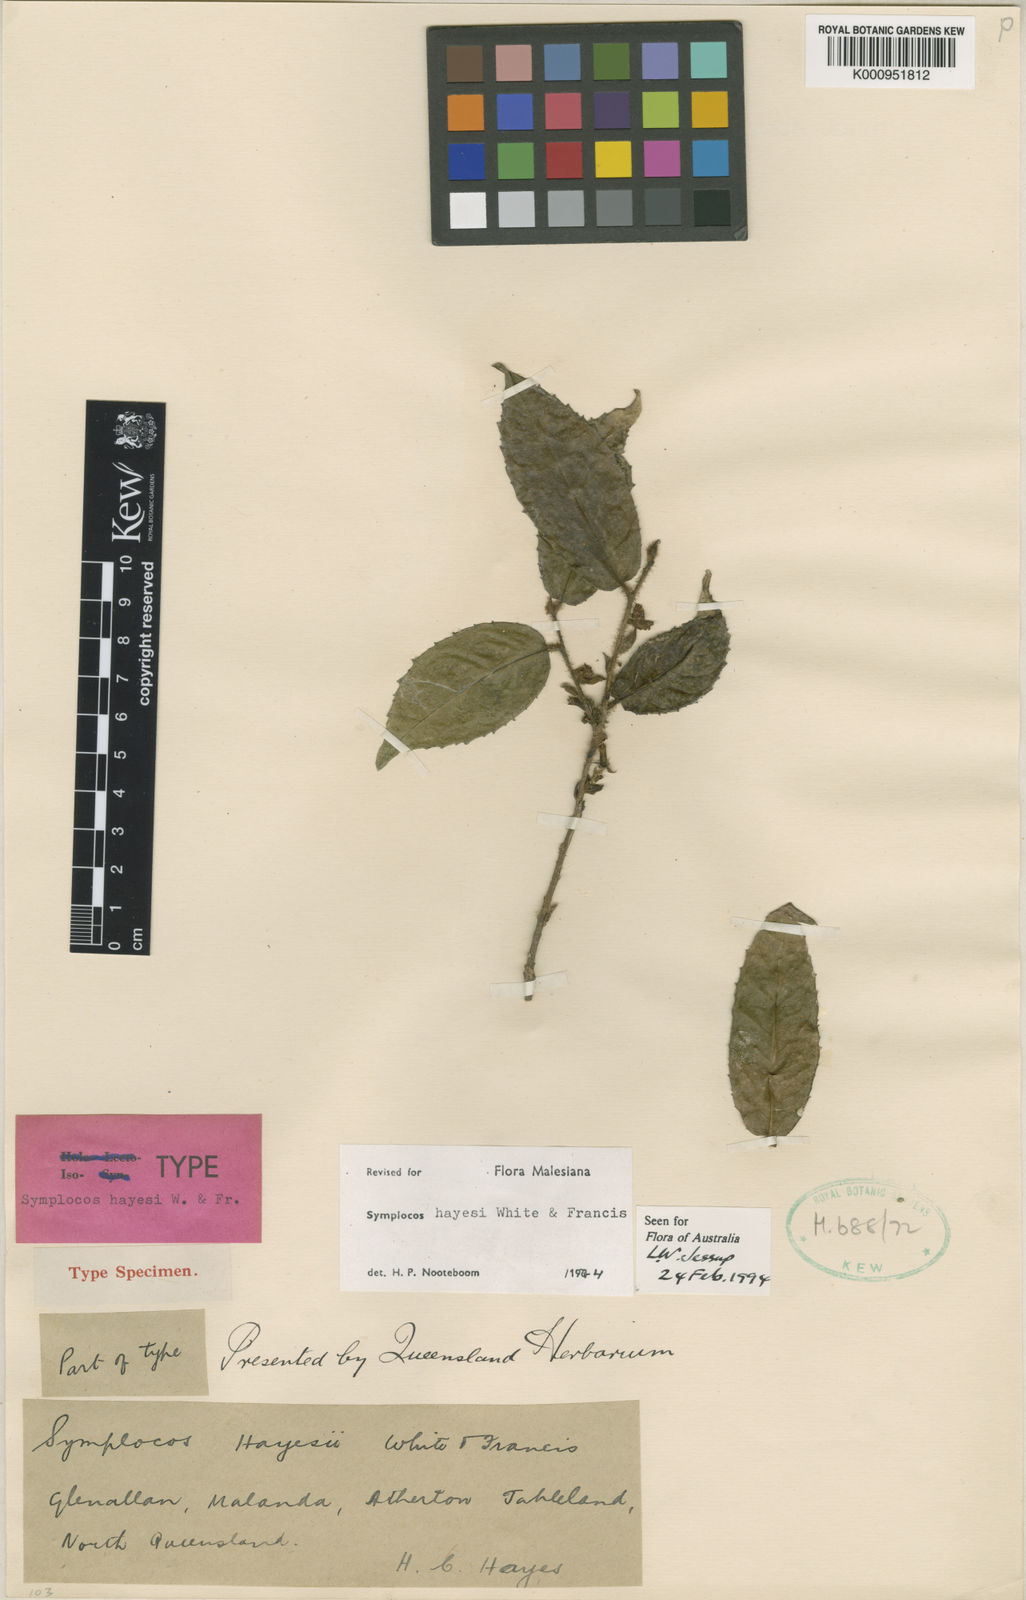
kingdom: Plantae
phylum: Tracheophyta
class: Magnoliopsida
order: Ericales
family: Symplocaceae
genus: Symplocos
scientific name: Symplocos hayesii
